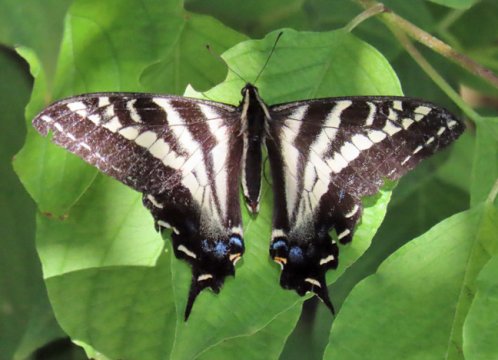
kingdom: Animalia
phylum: Arthropoda
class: Insecta
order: Lepidoptera
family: Papilionidae
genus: Pterourus
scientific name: Pterourus eurymedon
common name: Pale Swallowtail
